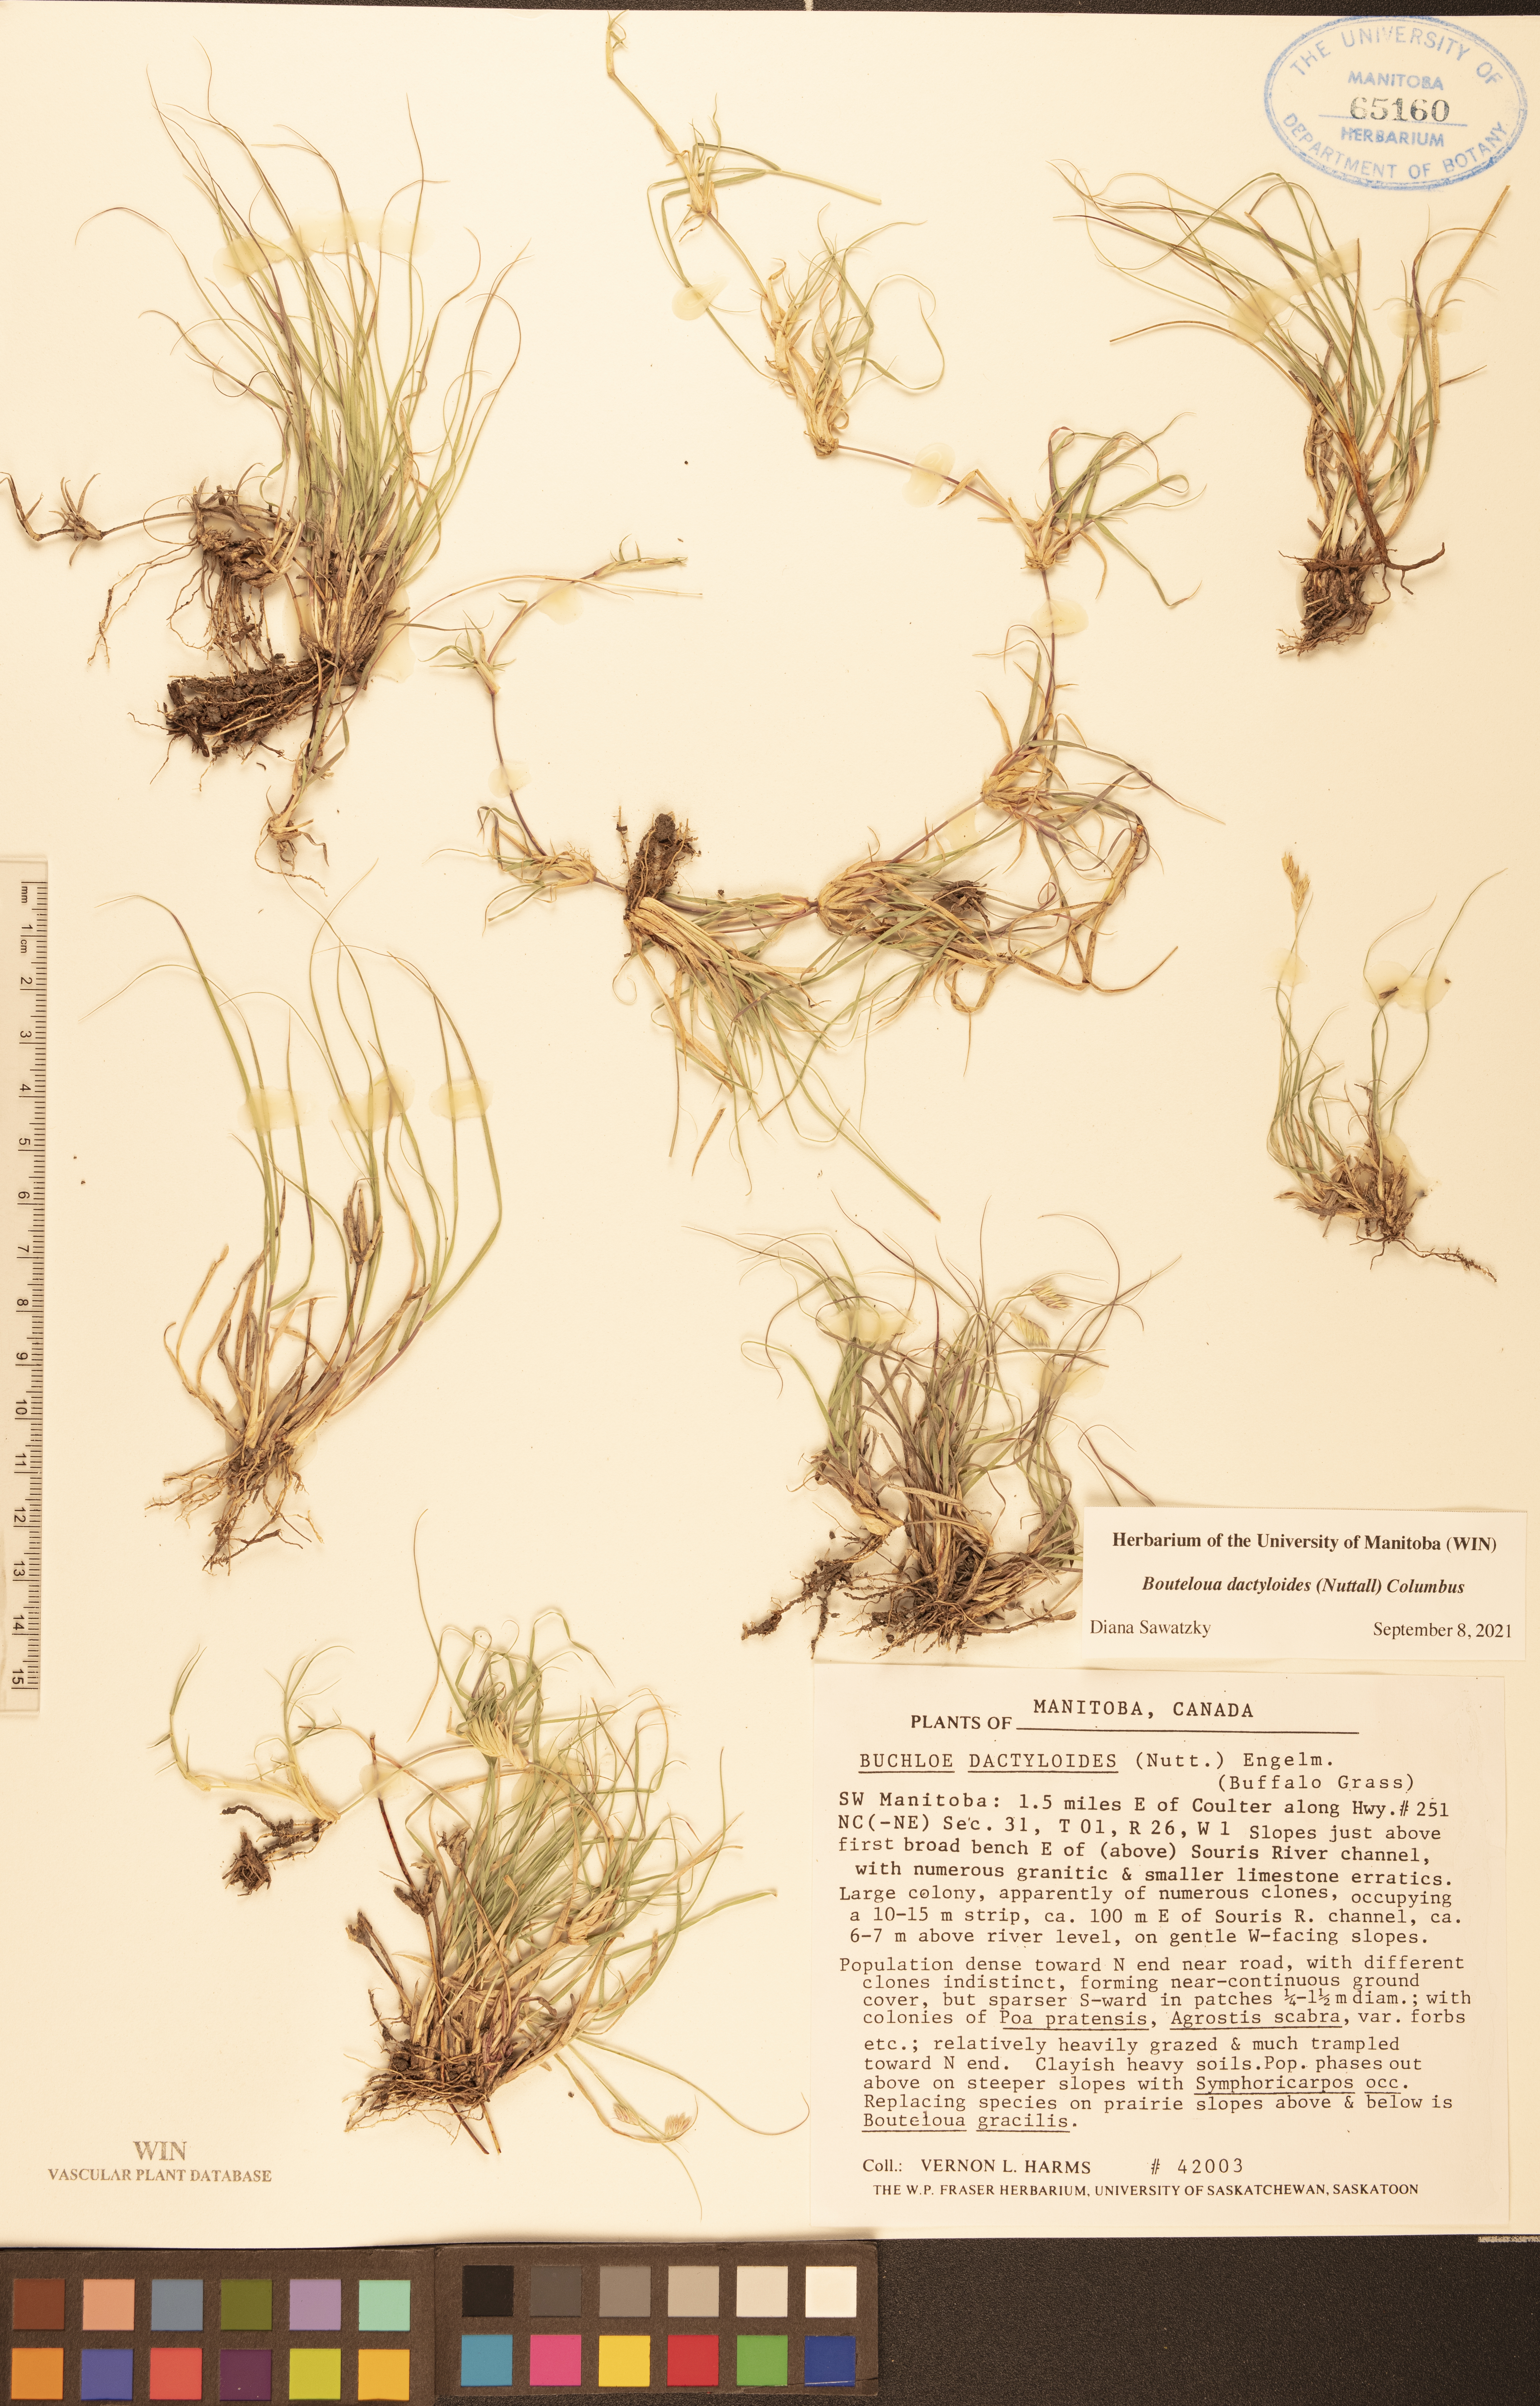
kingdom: Plantae
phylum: Tracheophyta
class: Liliopsida
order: Poales
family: Poaceae
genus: Bouteloua
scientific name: Bouteloua dactyloides
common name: Buffalo grass
